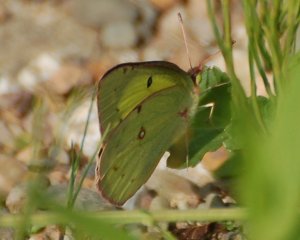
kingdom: Animalia
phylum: Arthropoda
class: Insecta
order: Lepidoptera
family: Pieridae
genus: Colias
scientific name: Colias philodice
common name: Clouded Sulphur
